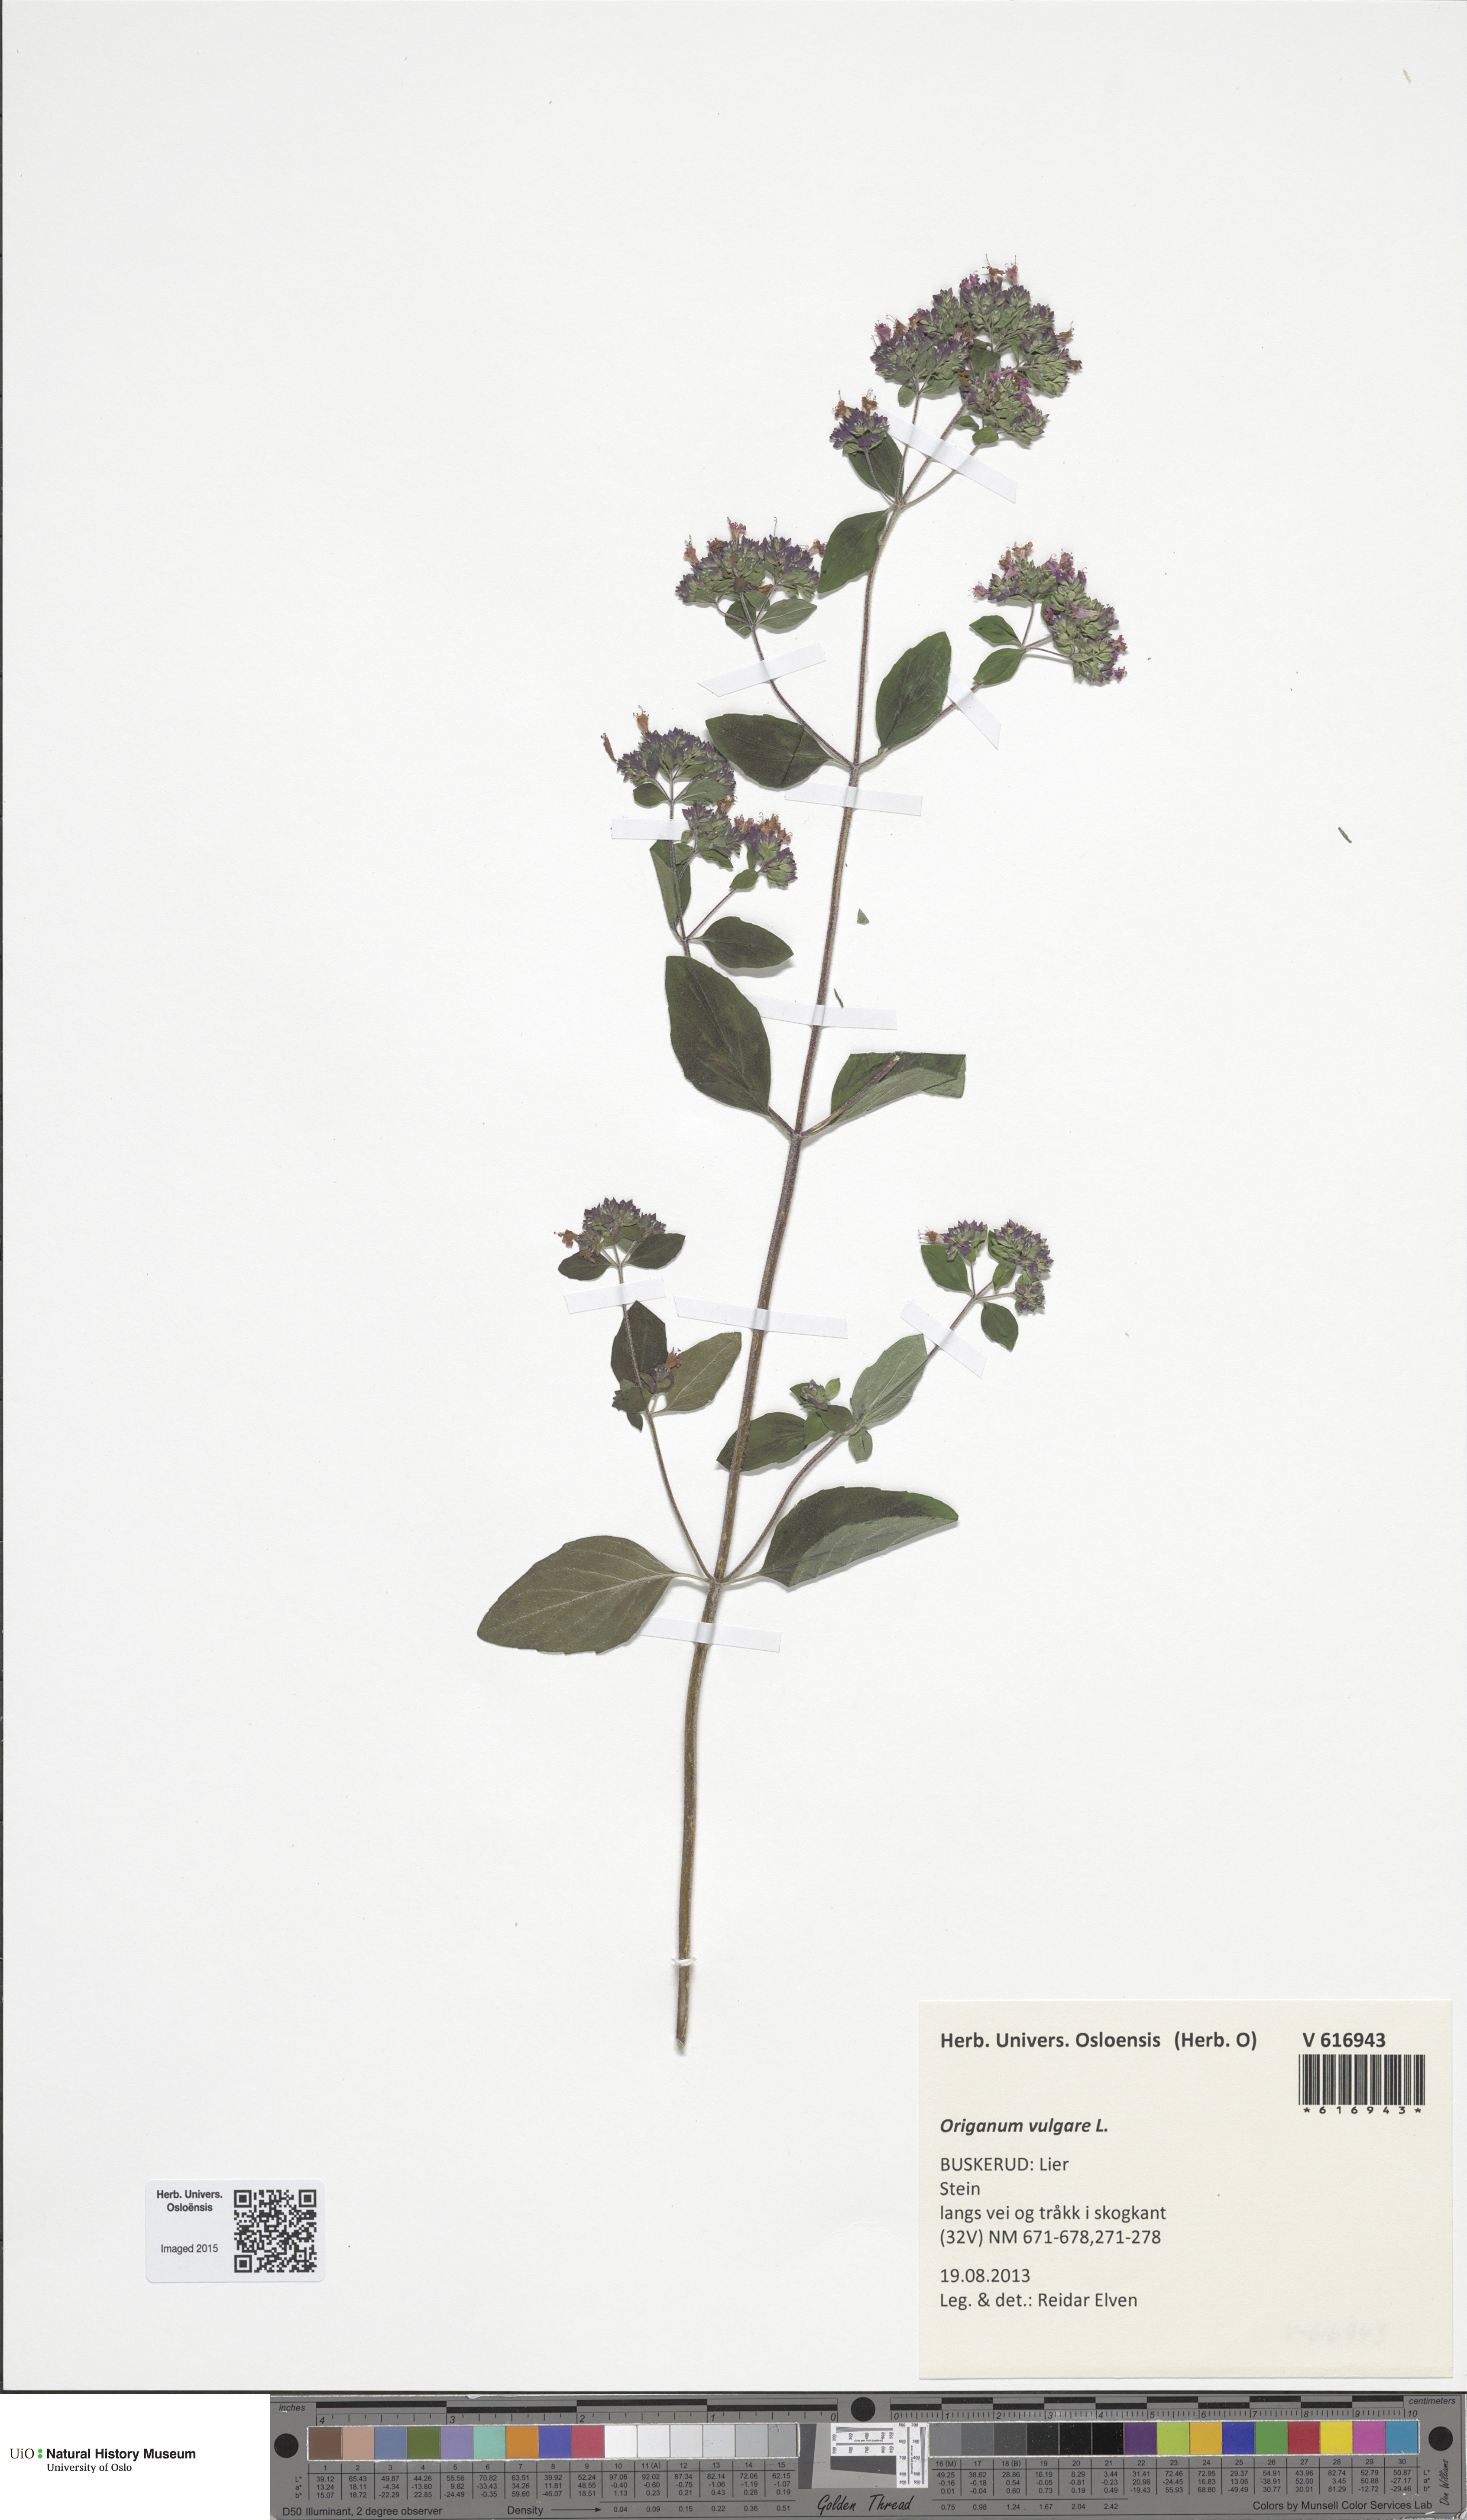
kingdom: Plantae
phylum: Tracheophyta
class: Magnoliopsida
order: Lamiales
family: Lamiaceae
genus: Origanum
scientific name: Origanum vulgare
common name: Wild marjoram
